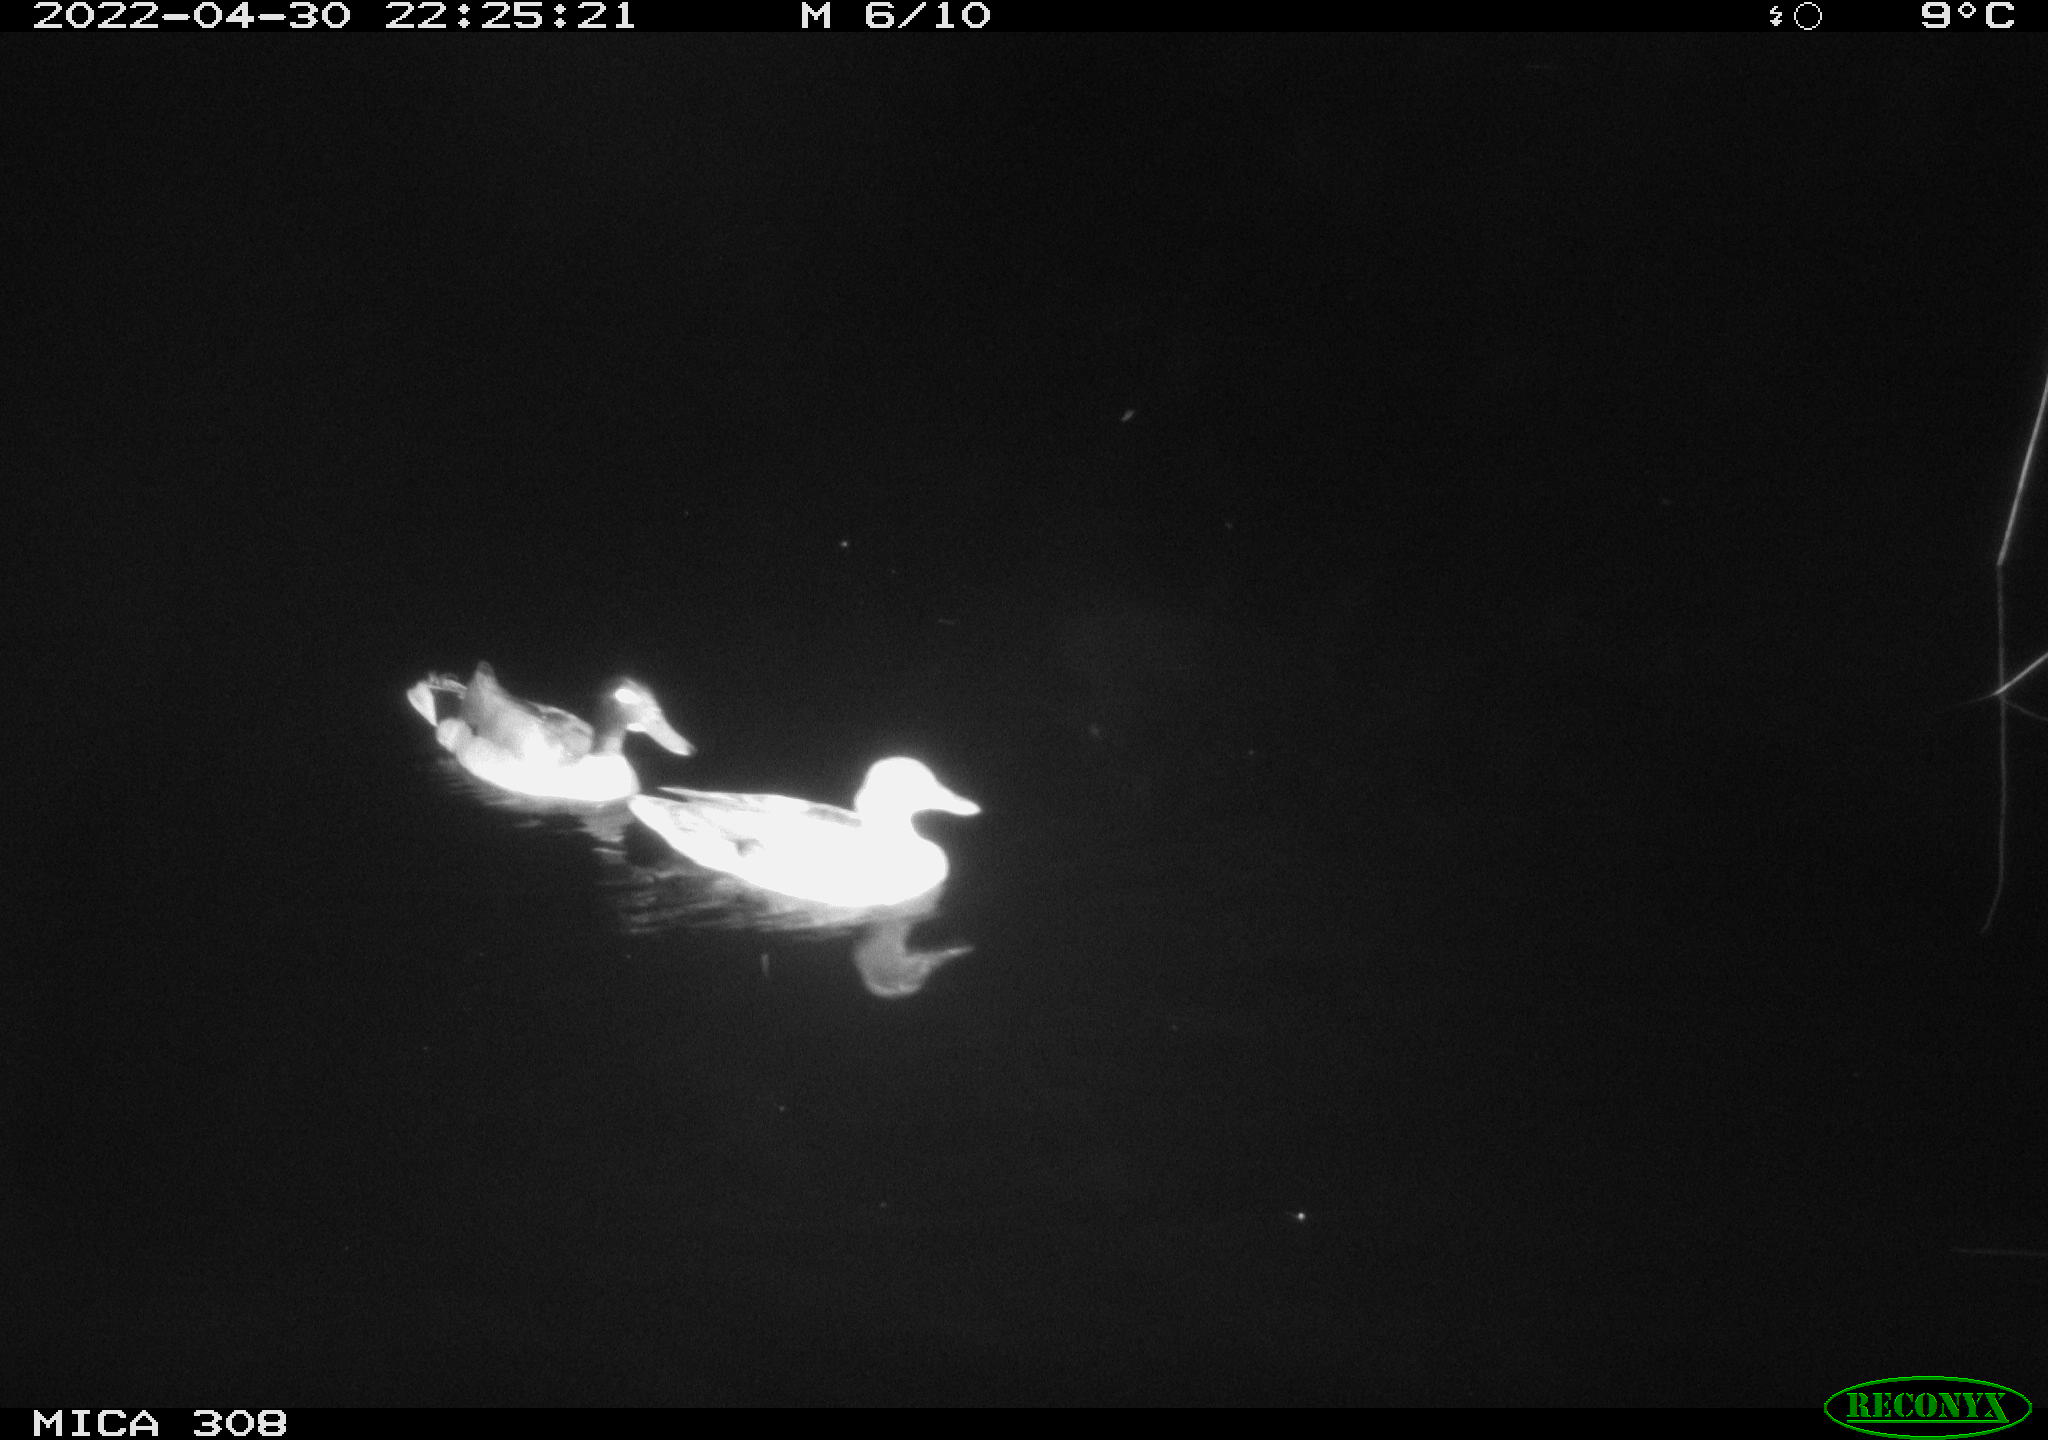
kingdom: Animalia
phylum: Chordata
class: Aves
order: Anseriformes
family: Anatidae
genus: Anas
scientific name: Anas platyrhynchos
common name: Mallard
